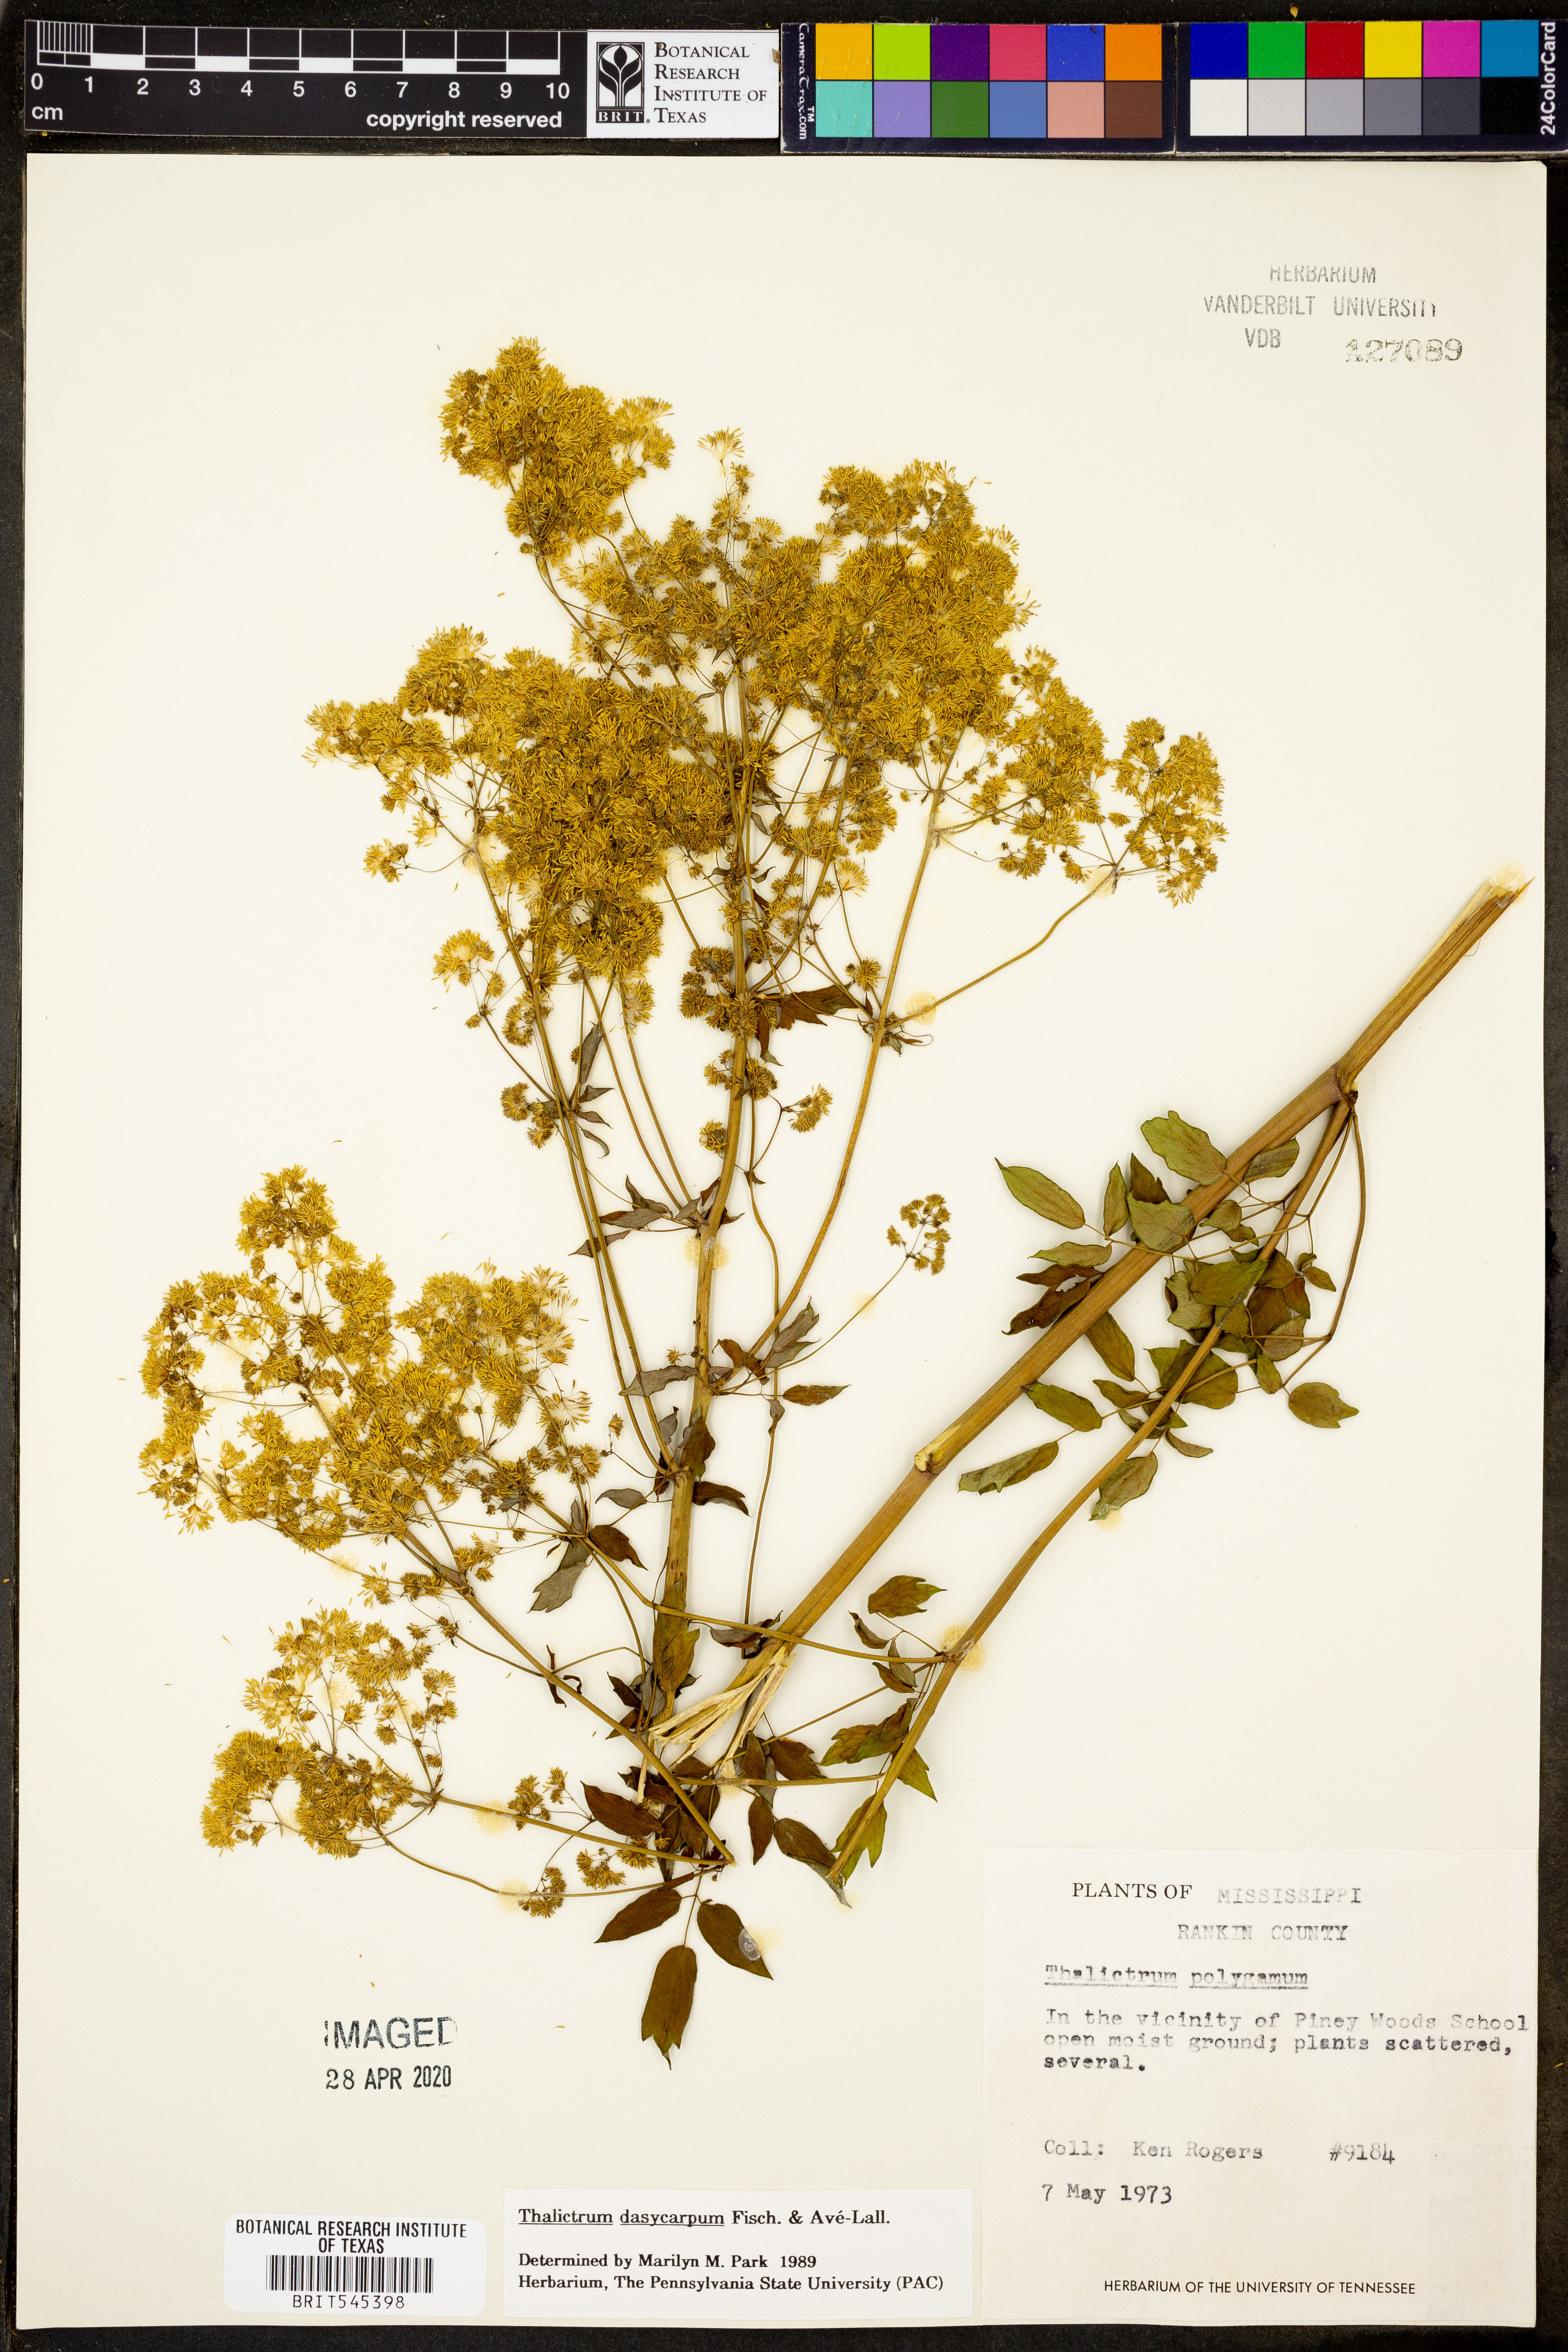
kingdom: Plantae
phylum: Tracheophyta
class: Magnoliopsida
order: Ranunculales
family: Ranunculaceae
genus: Thalictrum
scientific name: Thalictrum dasycarpum
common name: Purple meadow-rue
